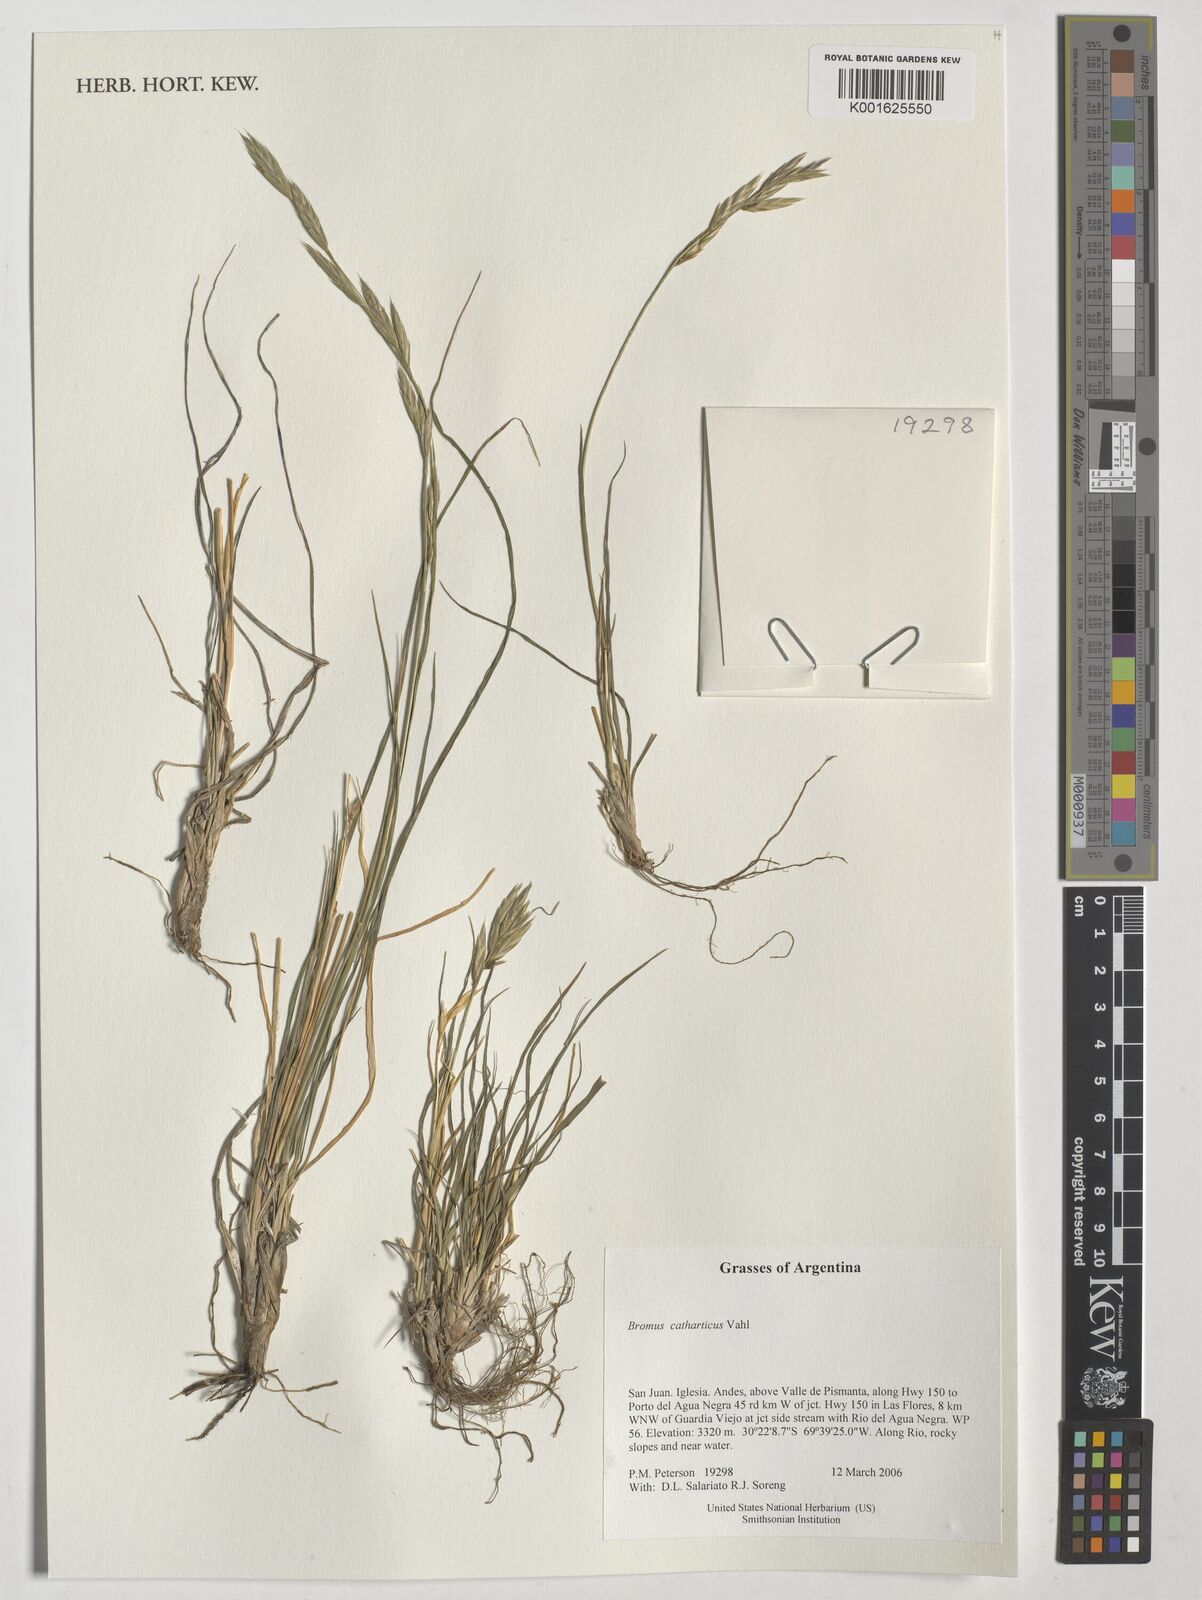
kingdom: Plantae
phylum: Tracheophyta
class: Liliopsida
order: Poales
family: Poaceae
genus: Bromus
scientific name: Bromus catharticus
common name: Rescuegrass
